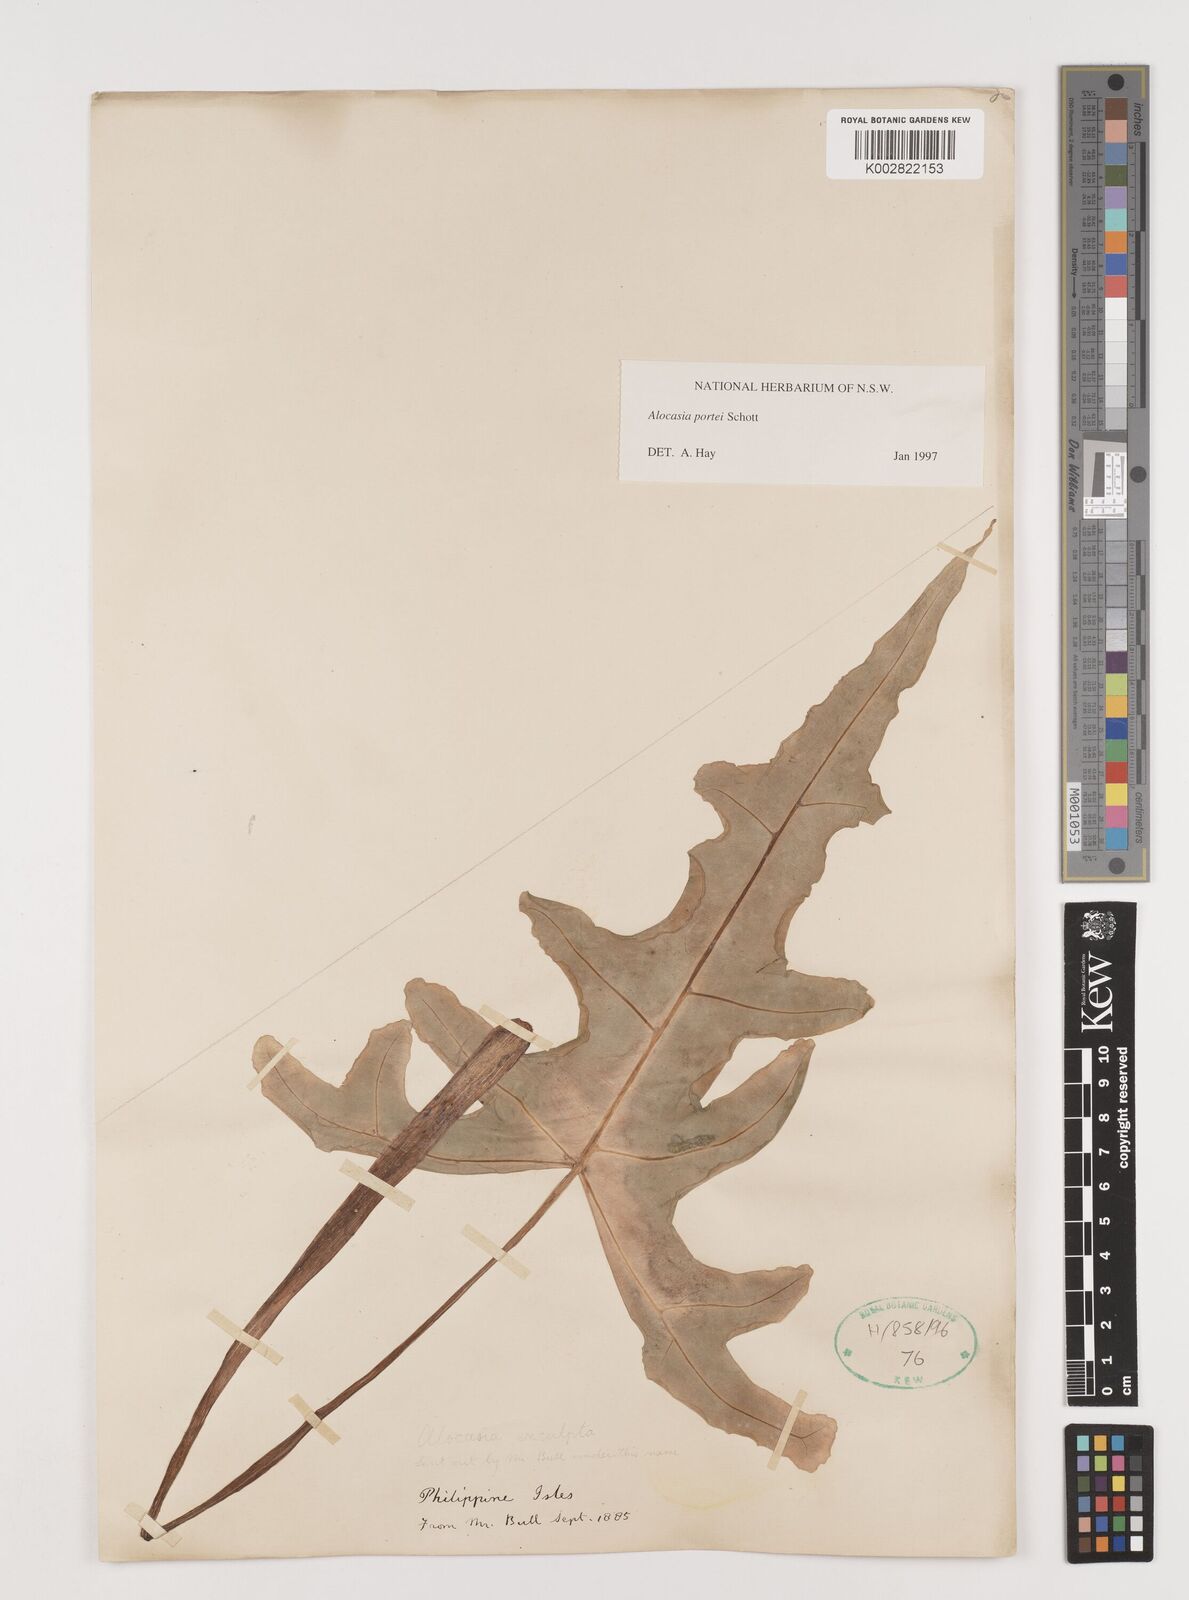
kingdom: Plantae
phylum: Tracheophyta
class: Liliopsida
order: Alismatales
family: Araceae
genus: Alocasia
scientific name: Alocasia portei
